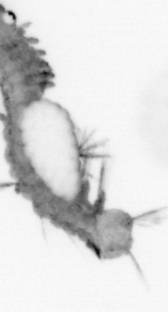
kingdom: Animalia
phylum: Annelida
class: Polychaeta
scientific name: Polychaeta
